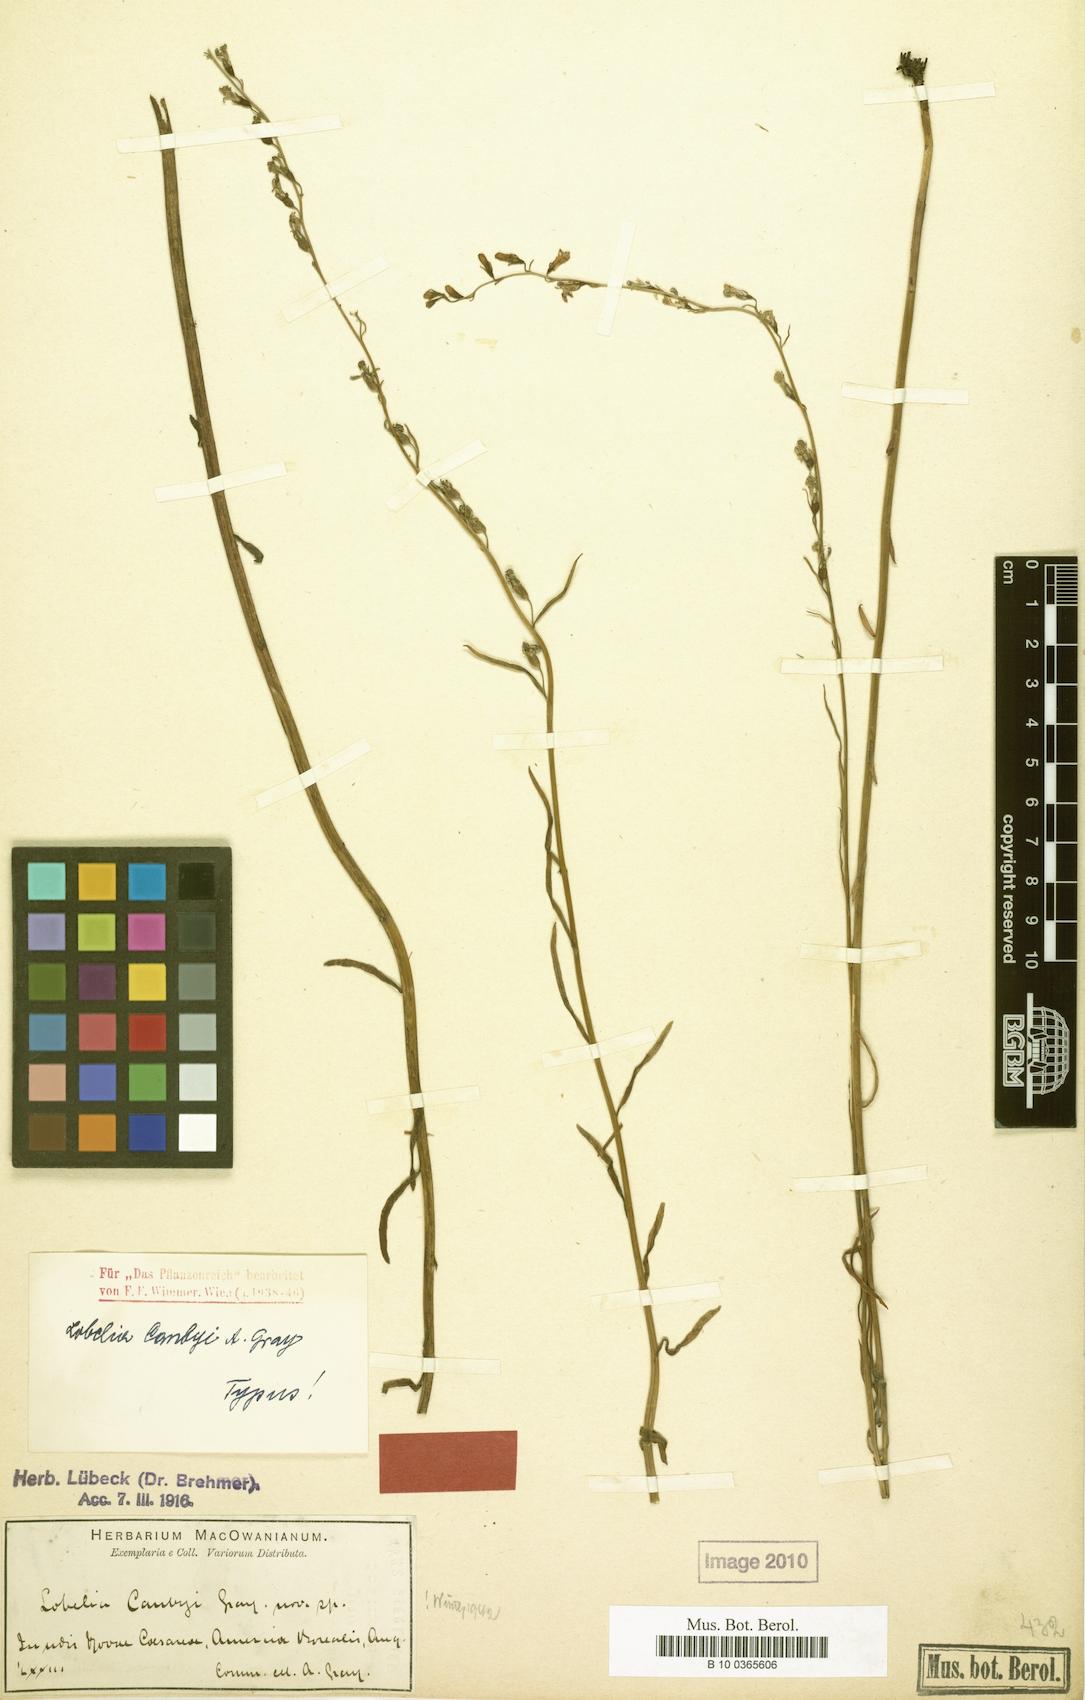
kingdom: Plantae
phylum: Tracheophyta
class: Magnoliopsida
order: Asterales
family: Campanulaceae
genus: Lobelia
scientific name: Lobelia canbyi
